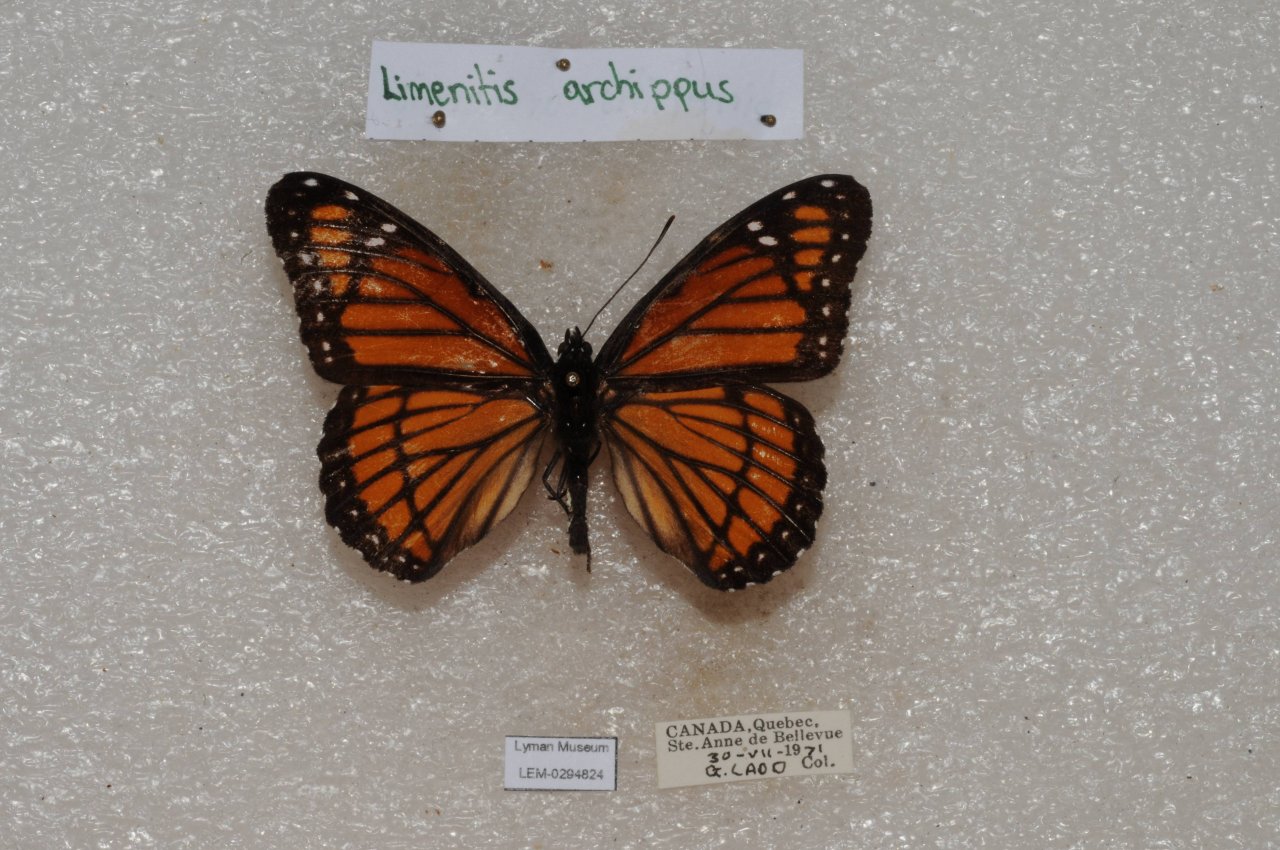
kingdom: Animalia
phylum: Arthropoda
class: Insecta
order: Lepidoptera
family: Nymphalidae
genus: Limenitis
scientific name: Limenitis archippus
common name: Viceroy
